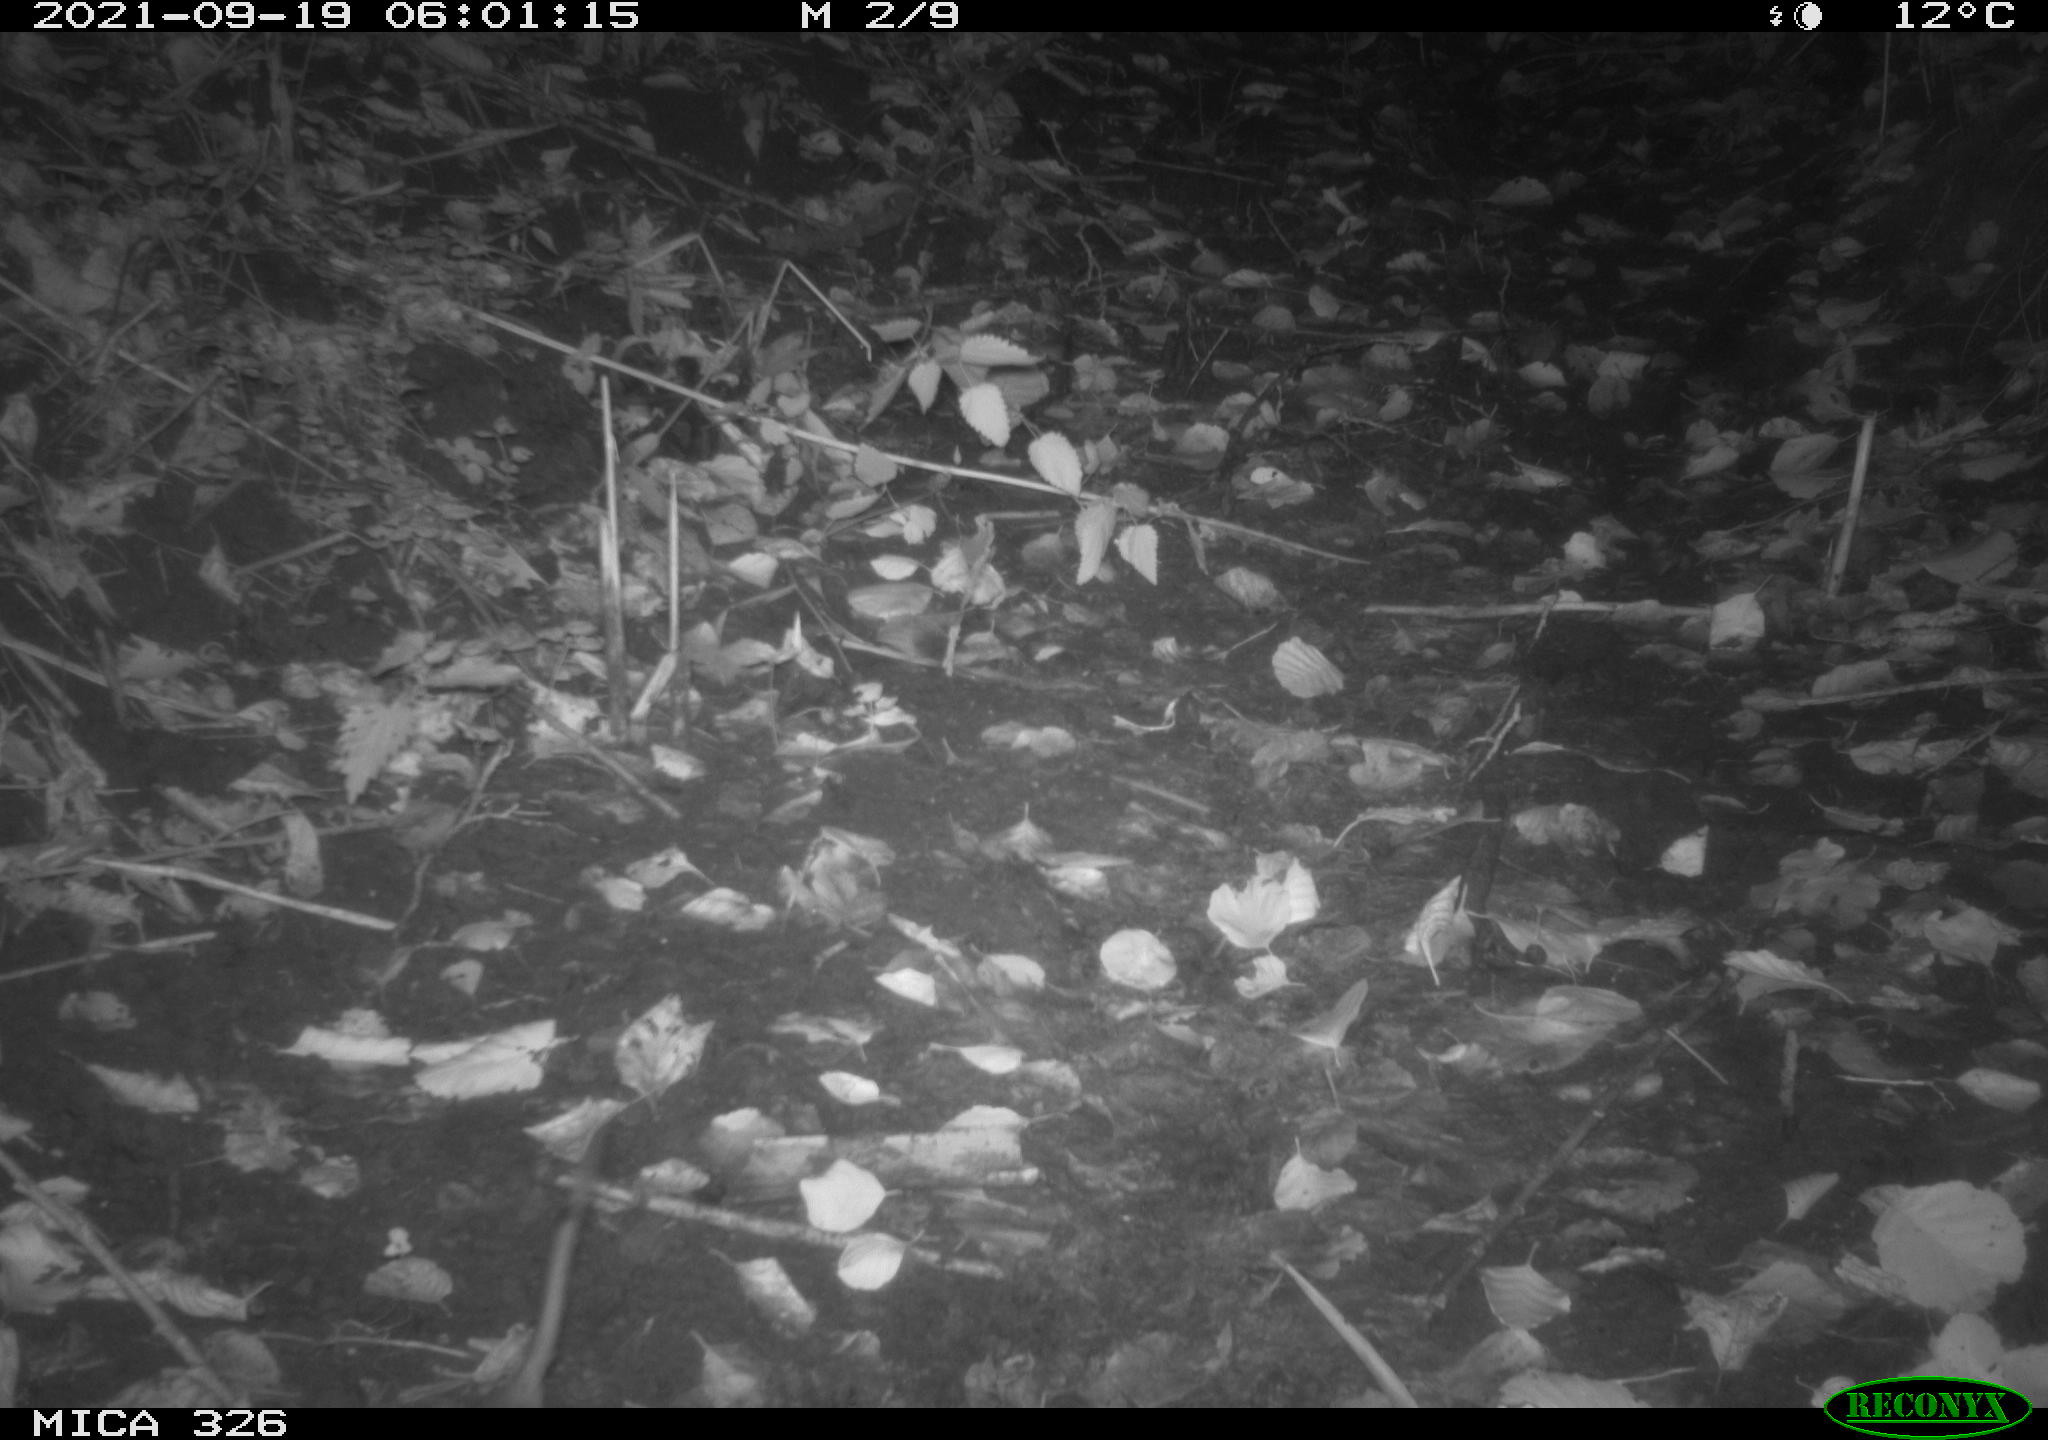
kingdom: Animalia
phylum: Chordata
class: Mammalia
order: Rodentia
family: Muridae
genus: Rattus
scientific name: Rattus norvegicus
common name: Brown rat
